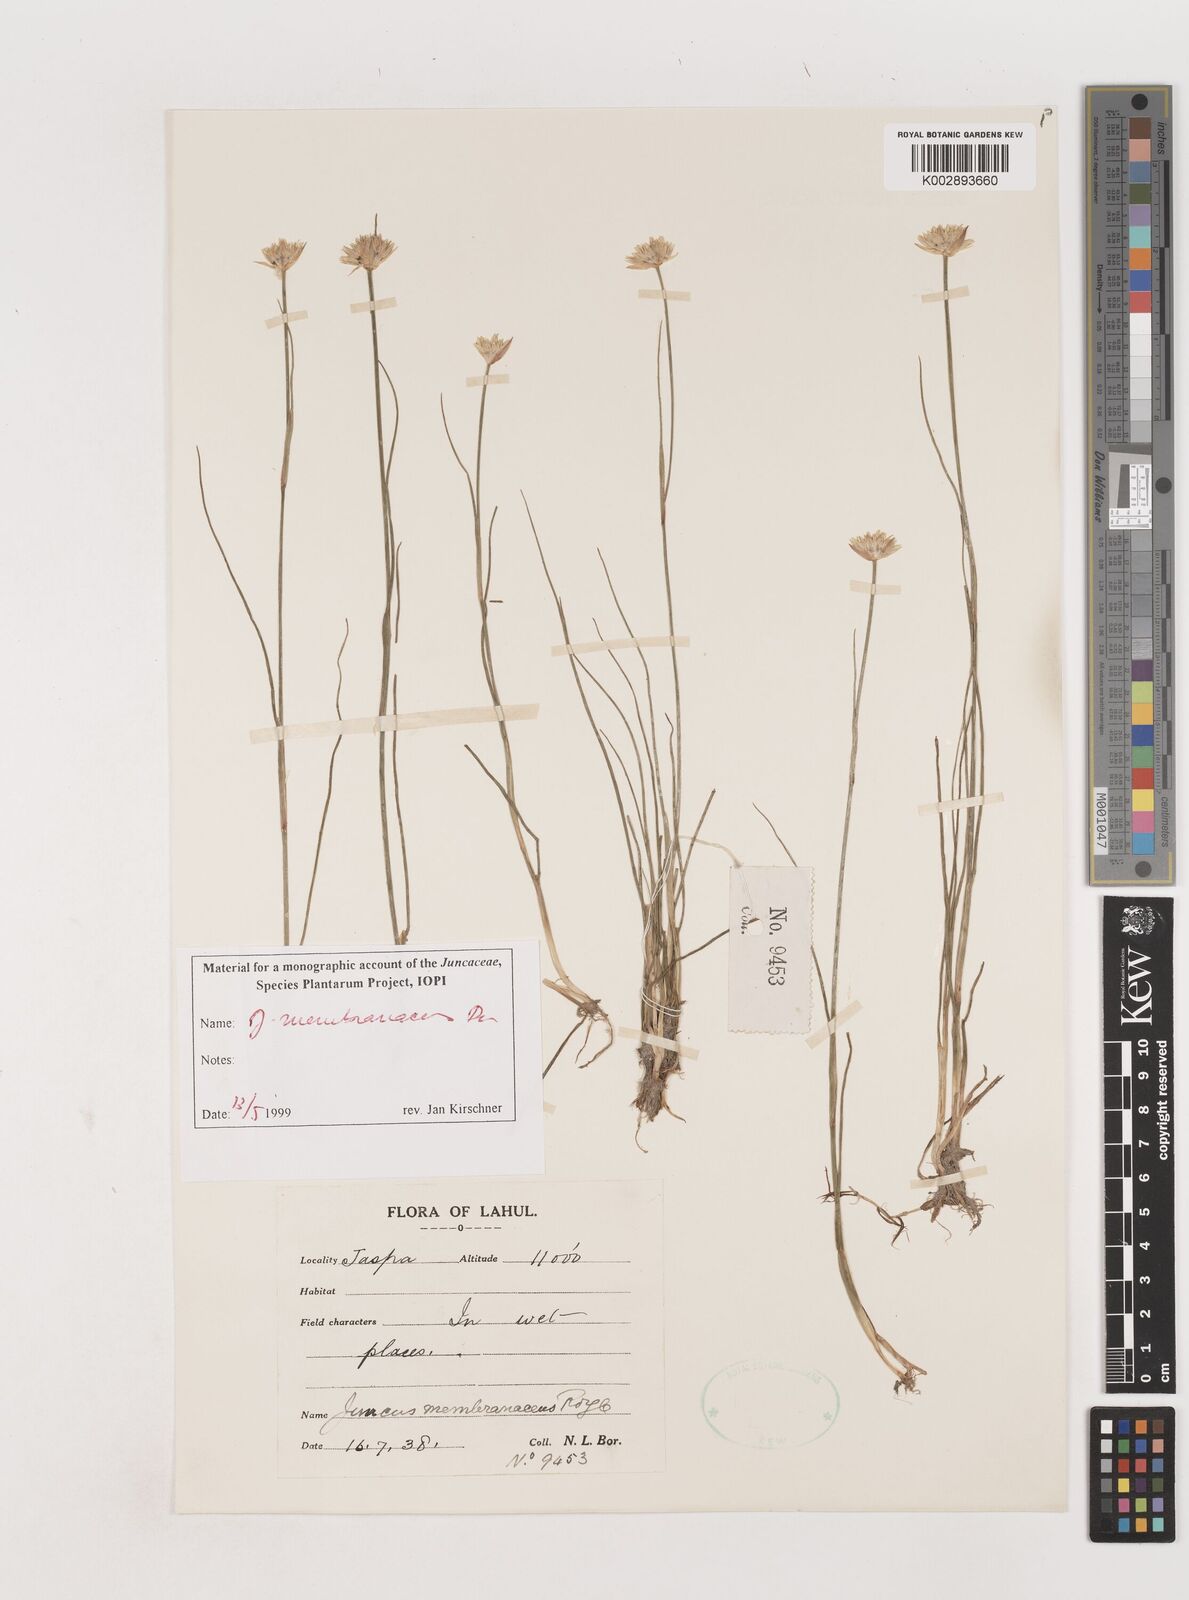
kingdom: Plantae
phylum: Tracheophyta
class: Liliopsida
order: Poales
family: Juncaceae
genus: Juncus
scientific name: Juncus membranaceus
